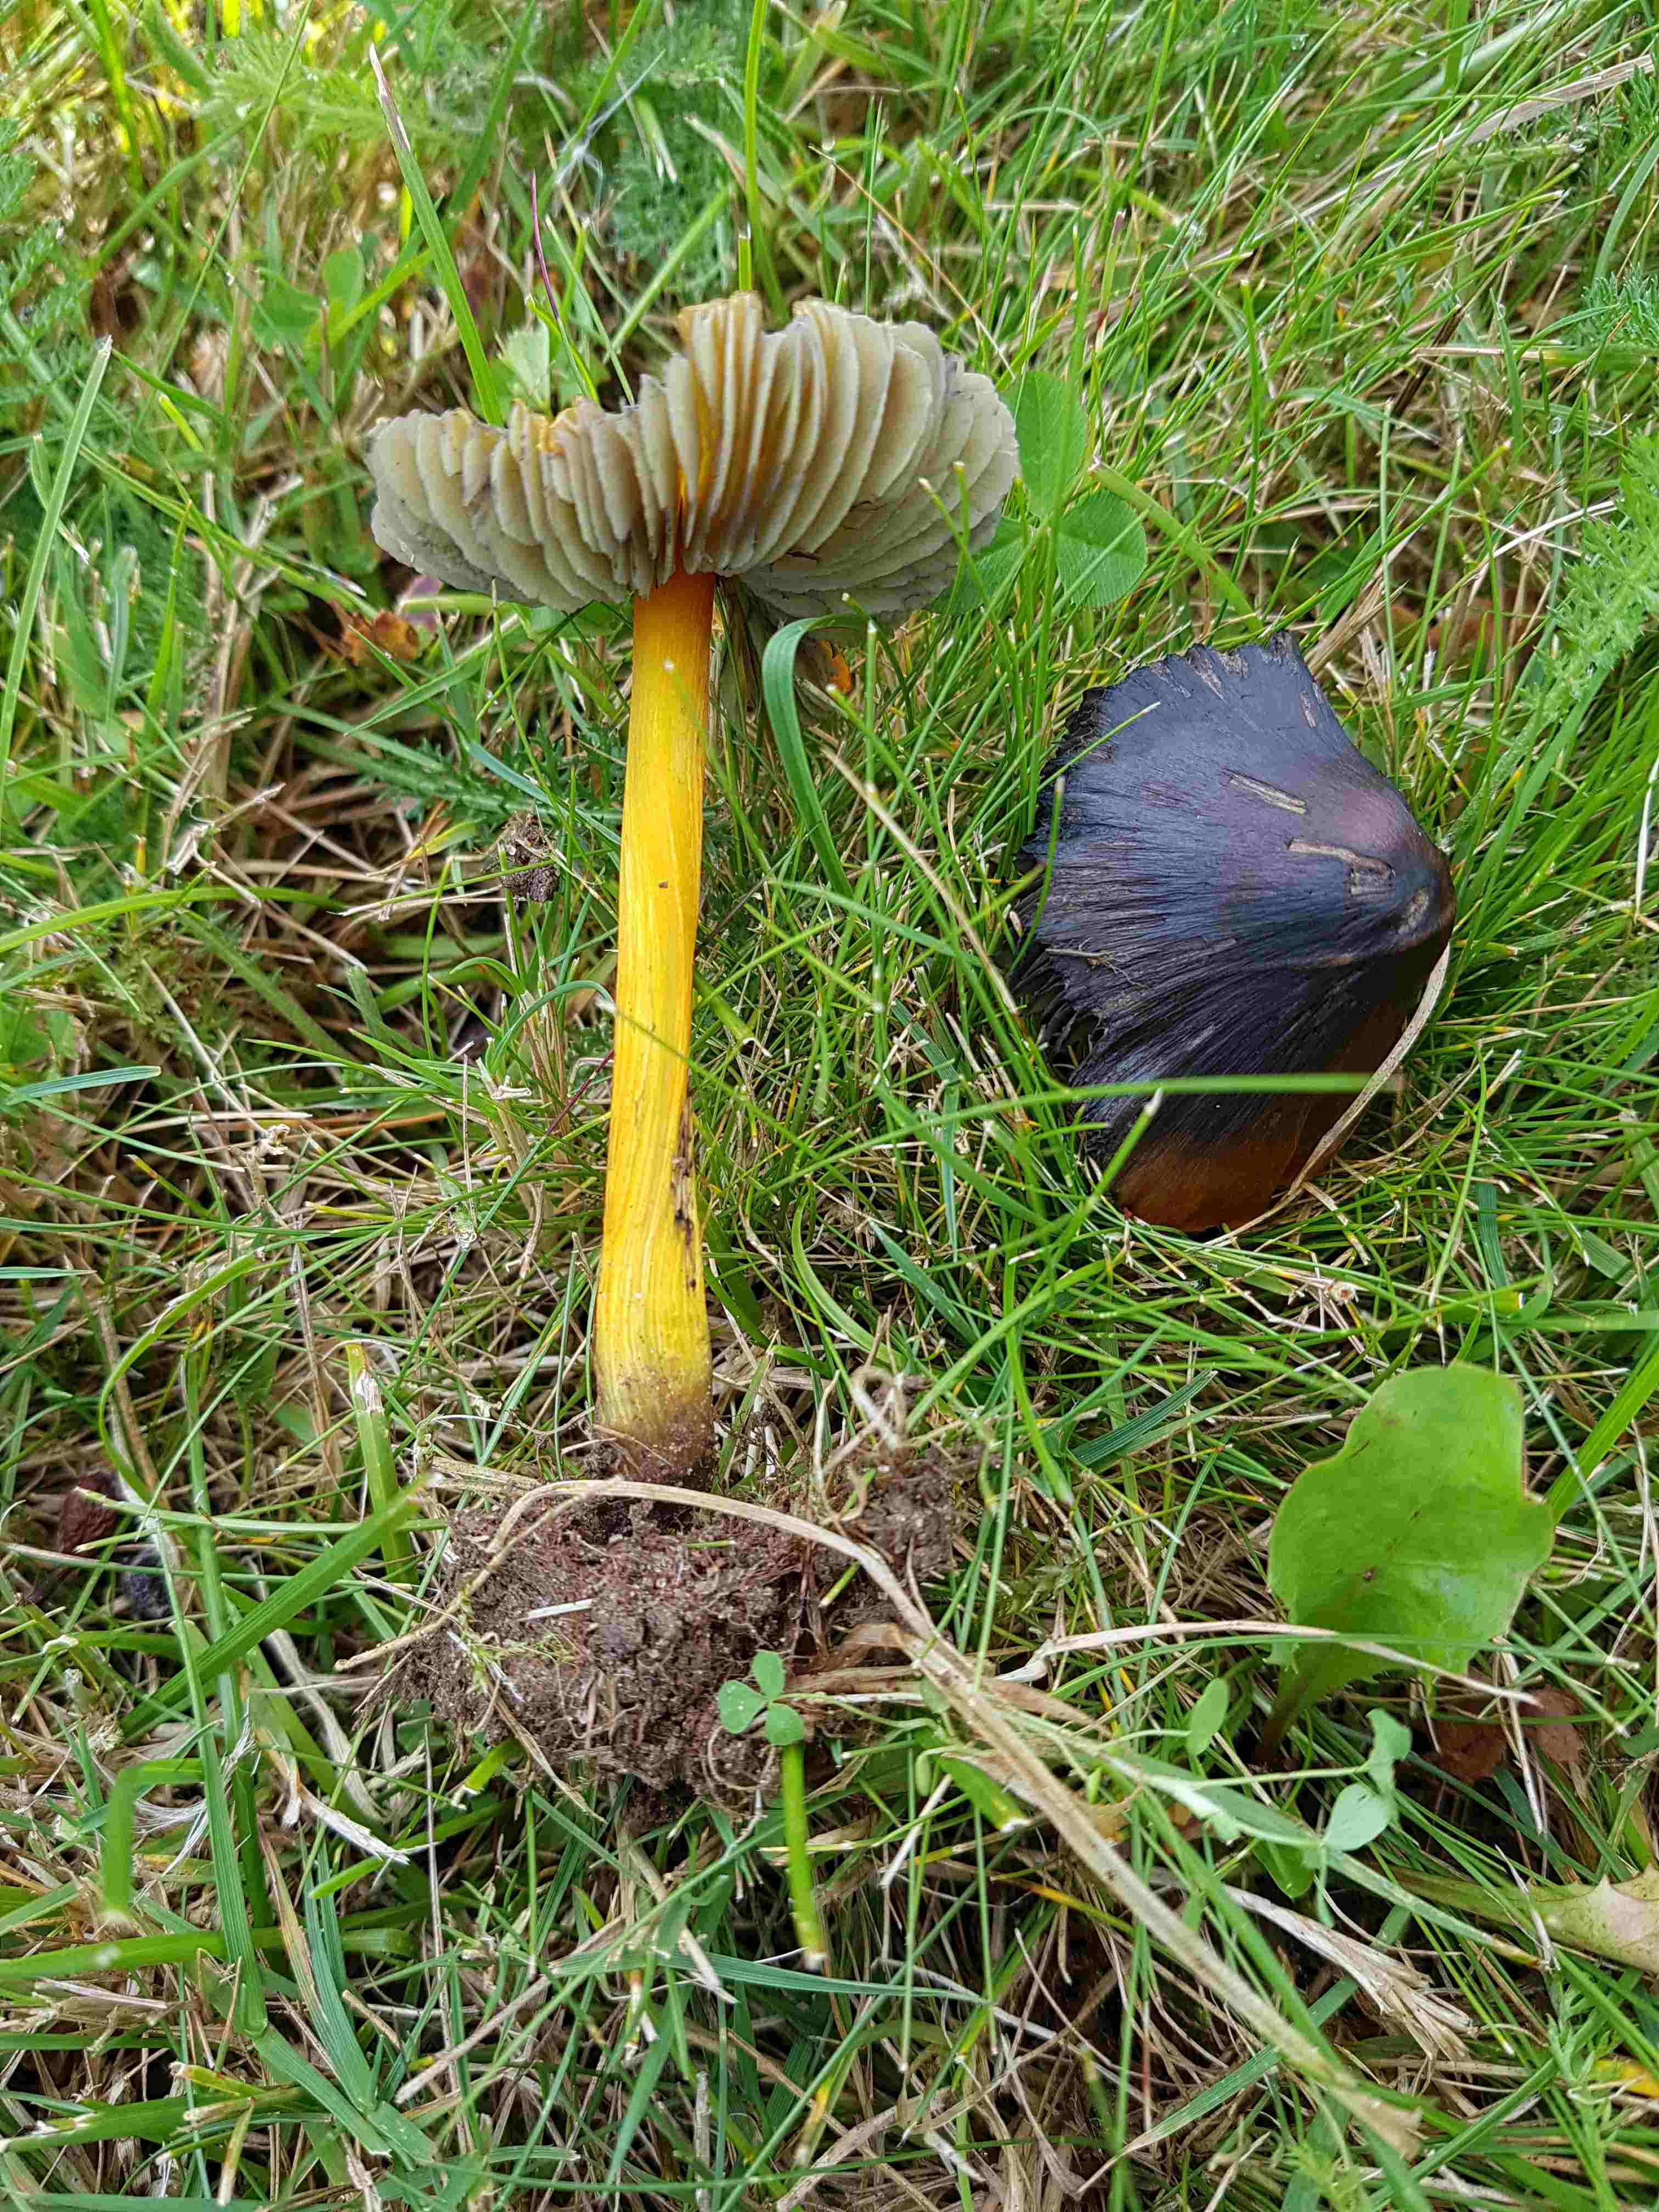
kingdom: Fungi
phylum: Basidiomycota
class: Agaricomycetes
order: Agaricales
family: Hygrophoraceae
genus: Hygrocybe
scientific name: Hygrocybe conica
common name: kegle-vokshat
